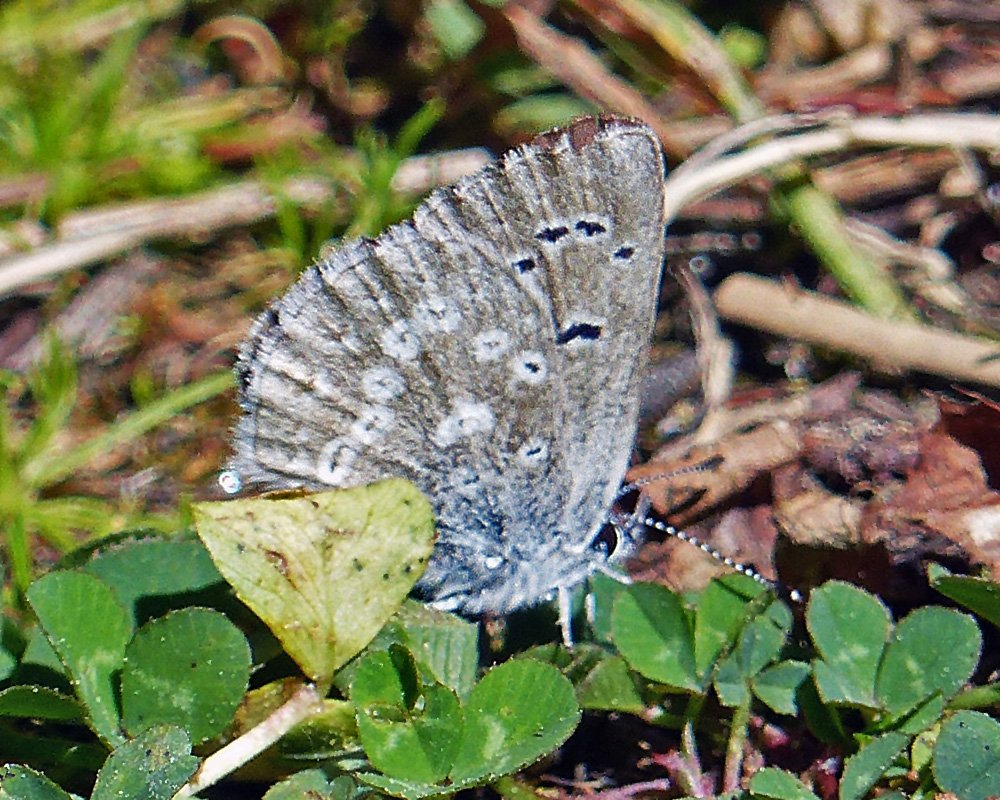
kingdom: Animalia
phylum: Arthropoda
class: Insecta
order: Lepidoptera
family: Lycaenidae
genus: Icaricia
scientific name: Icaricia icarioides
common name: Boisduval's Blue
